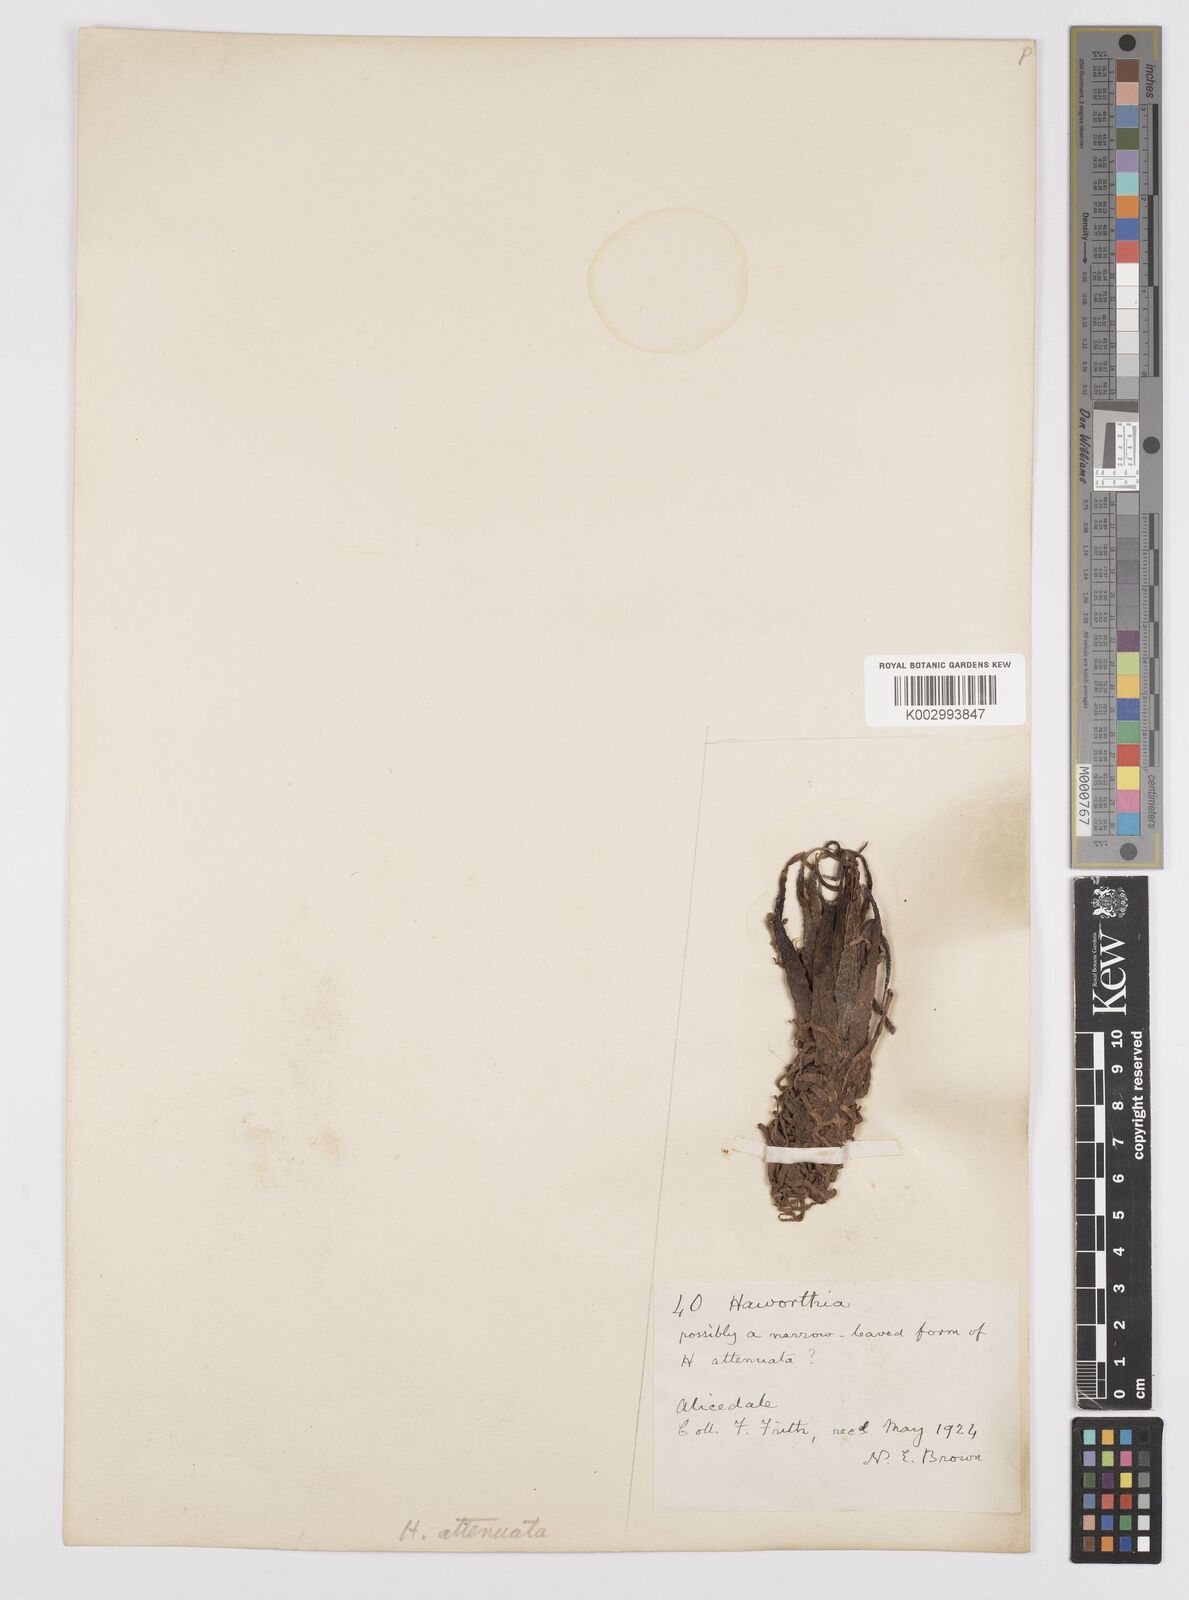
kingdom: Plantae
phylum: Tracheophyta
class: Liliopsida
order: Asparagales
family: Asphodelaceae
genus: Haworthiopsis
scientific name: Haworthiopsis attenuata
